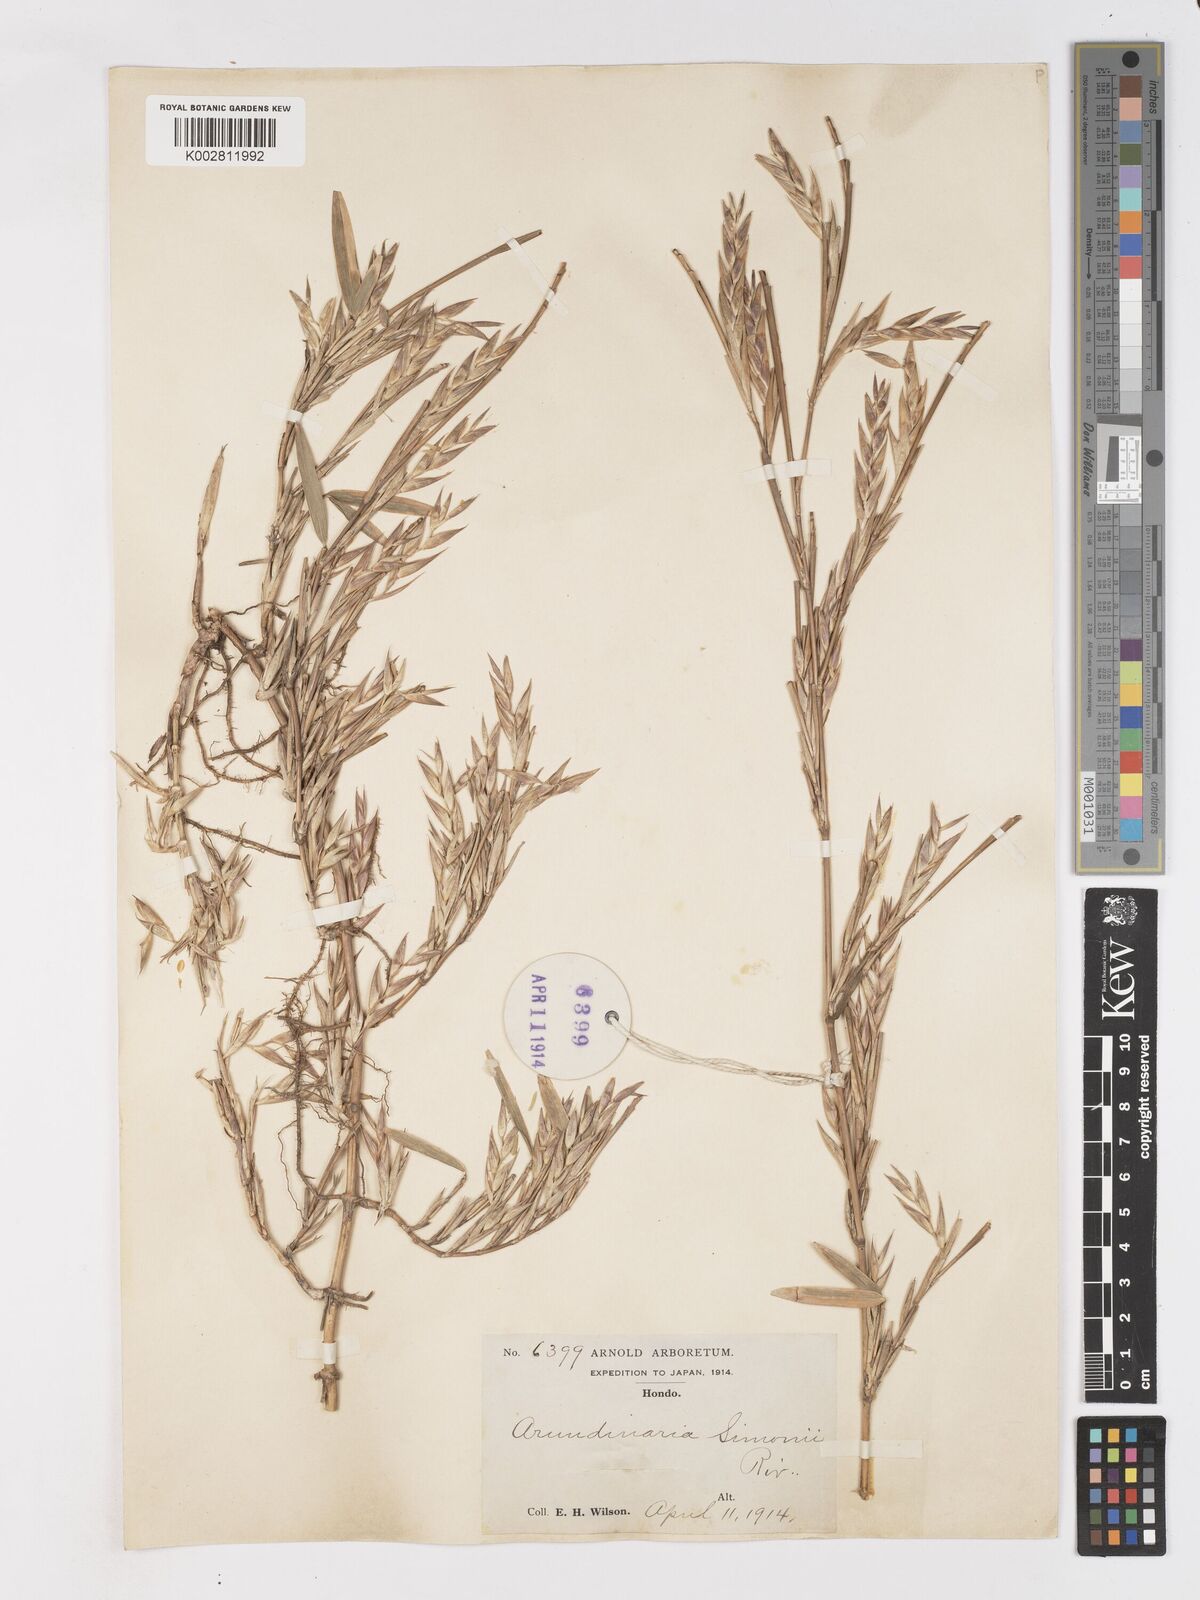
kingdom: Plantae
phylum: Tracheophyta
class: Liliopsida
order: Poales
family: Poaceae
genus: Pleioblastus
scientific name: Pleioblastus simonii
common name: Simon bamboo
